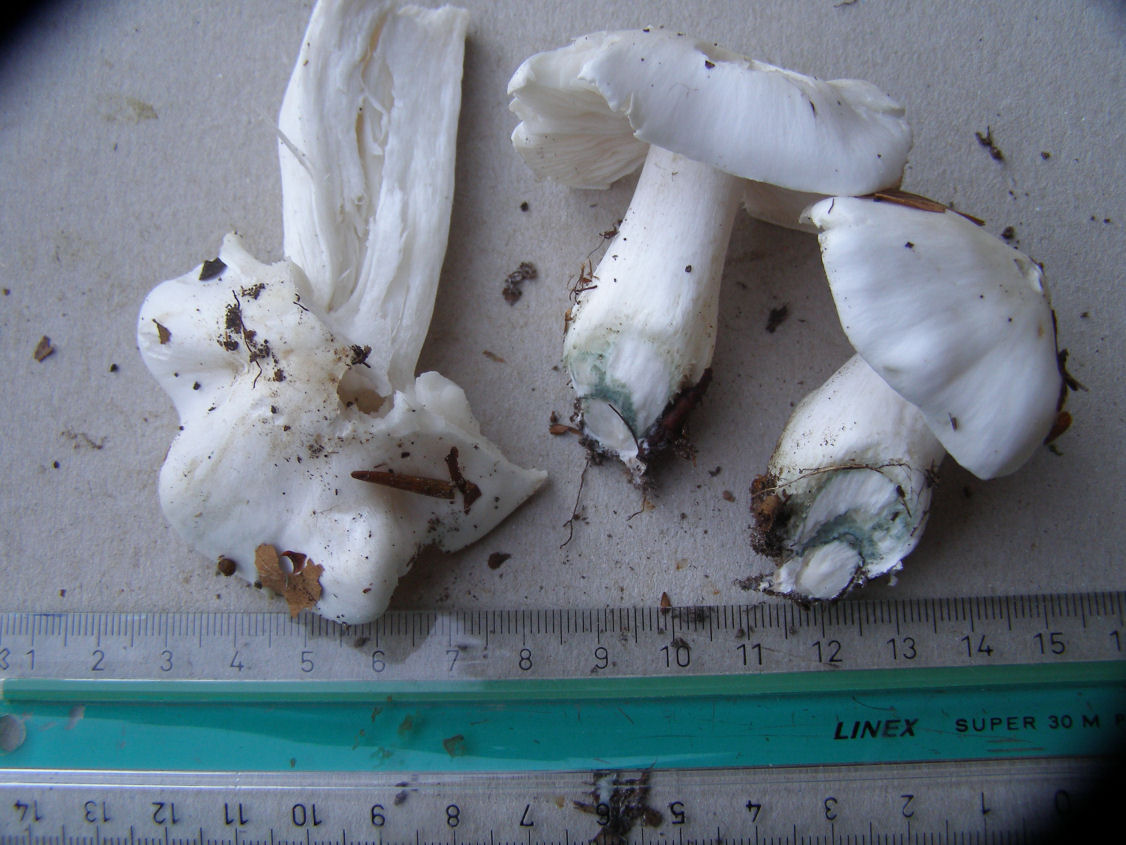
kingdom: Fungi
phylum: Basidiomycota
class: Agaricomycetes
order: Agaricales
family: Tricholomataceae
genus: Tricholoma
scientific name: Tricholoma columbetta
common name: silke-ridderhat
